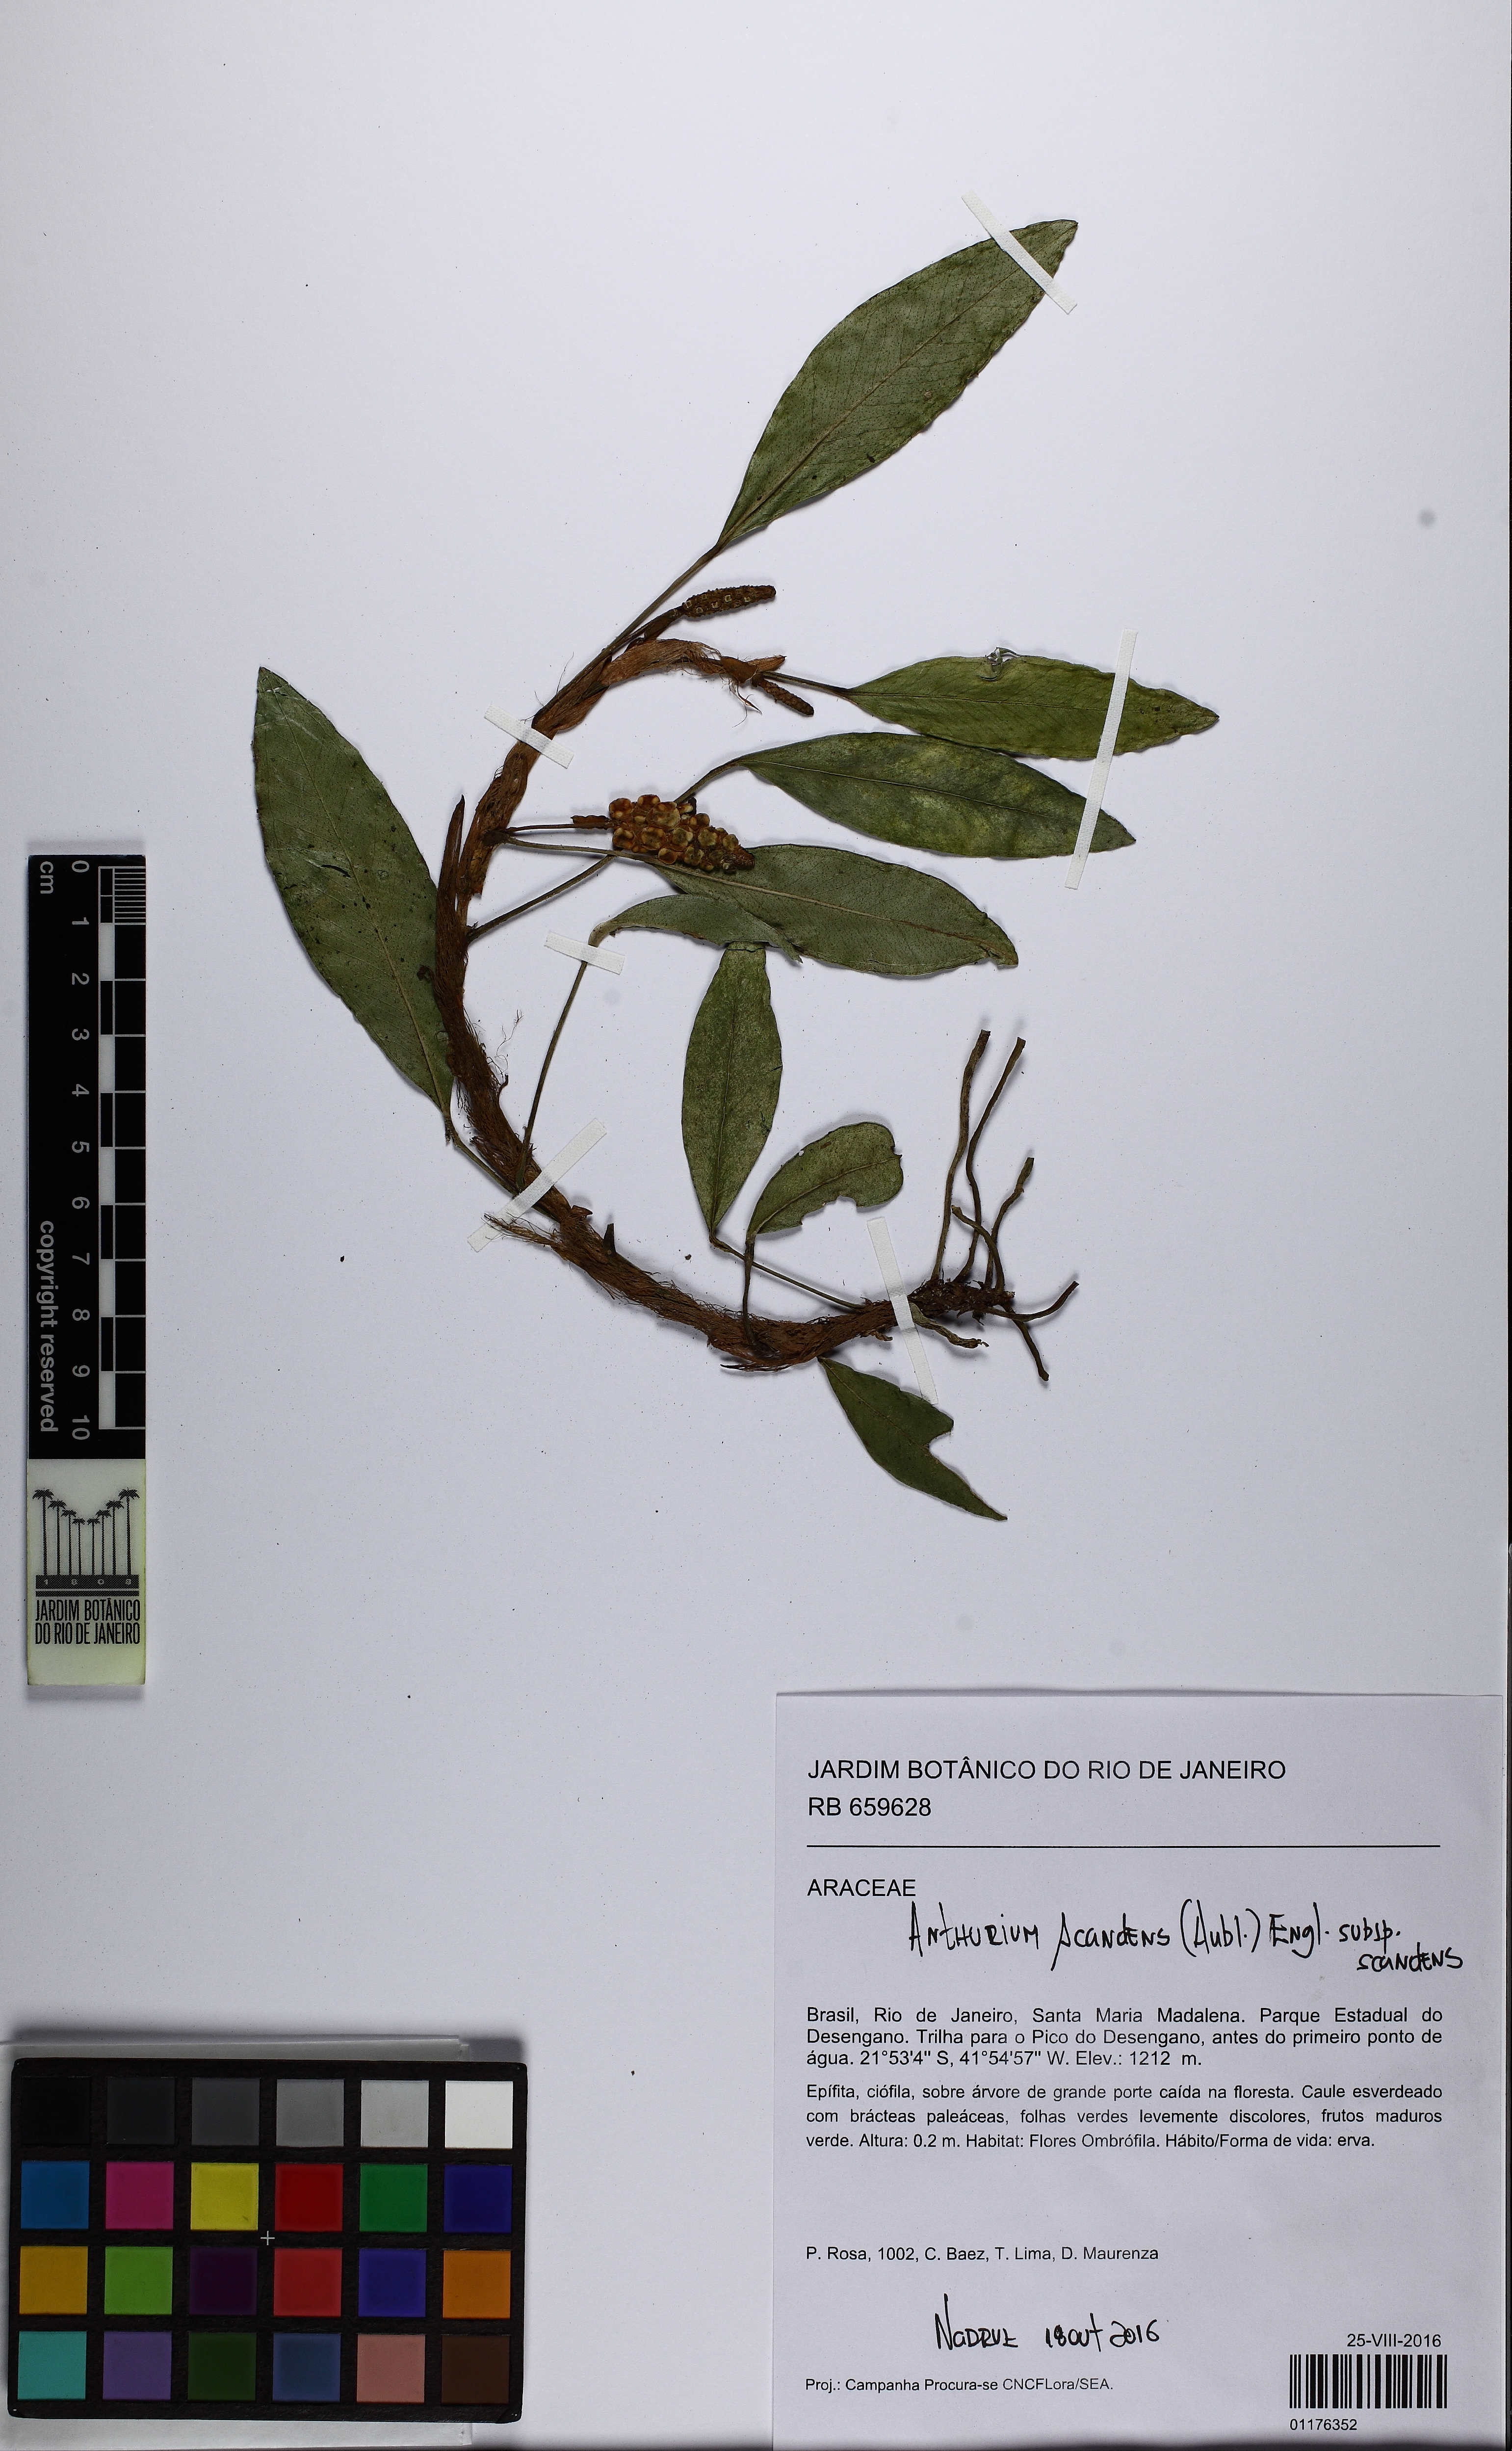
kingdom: Plantae
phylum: Tracheophyta
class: Liliopsida
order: Alismatales
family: Araceae
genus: Anthurium
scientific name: Anthurium scandens
